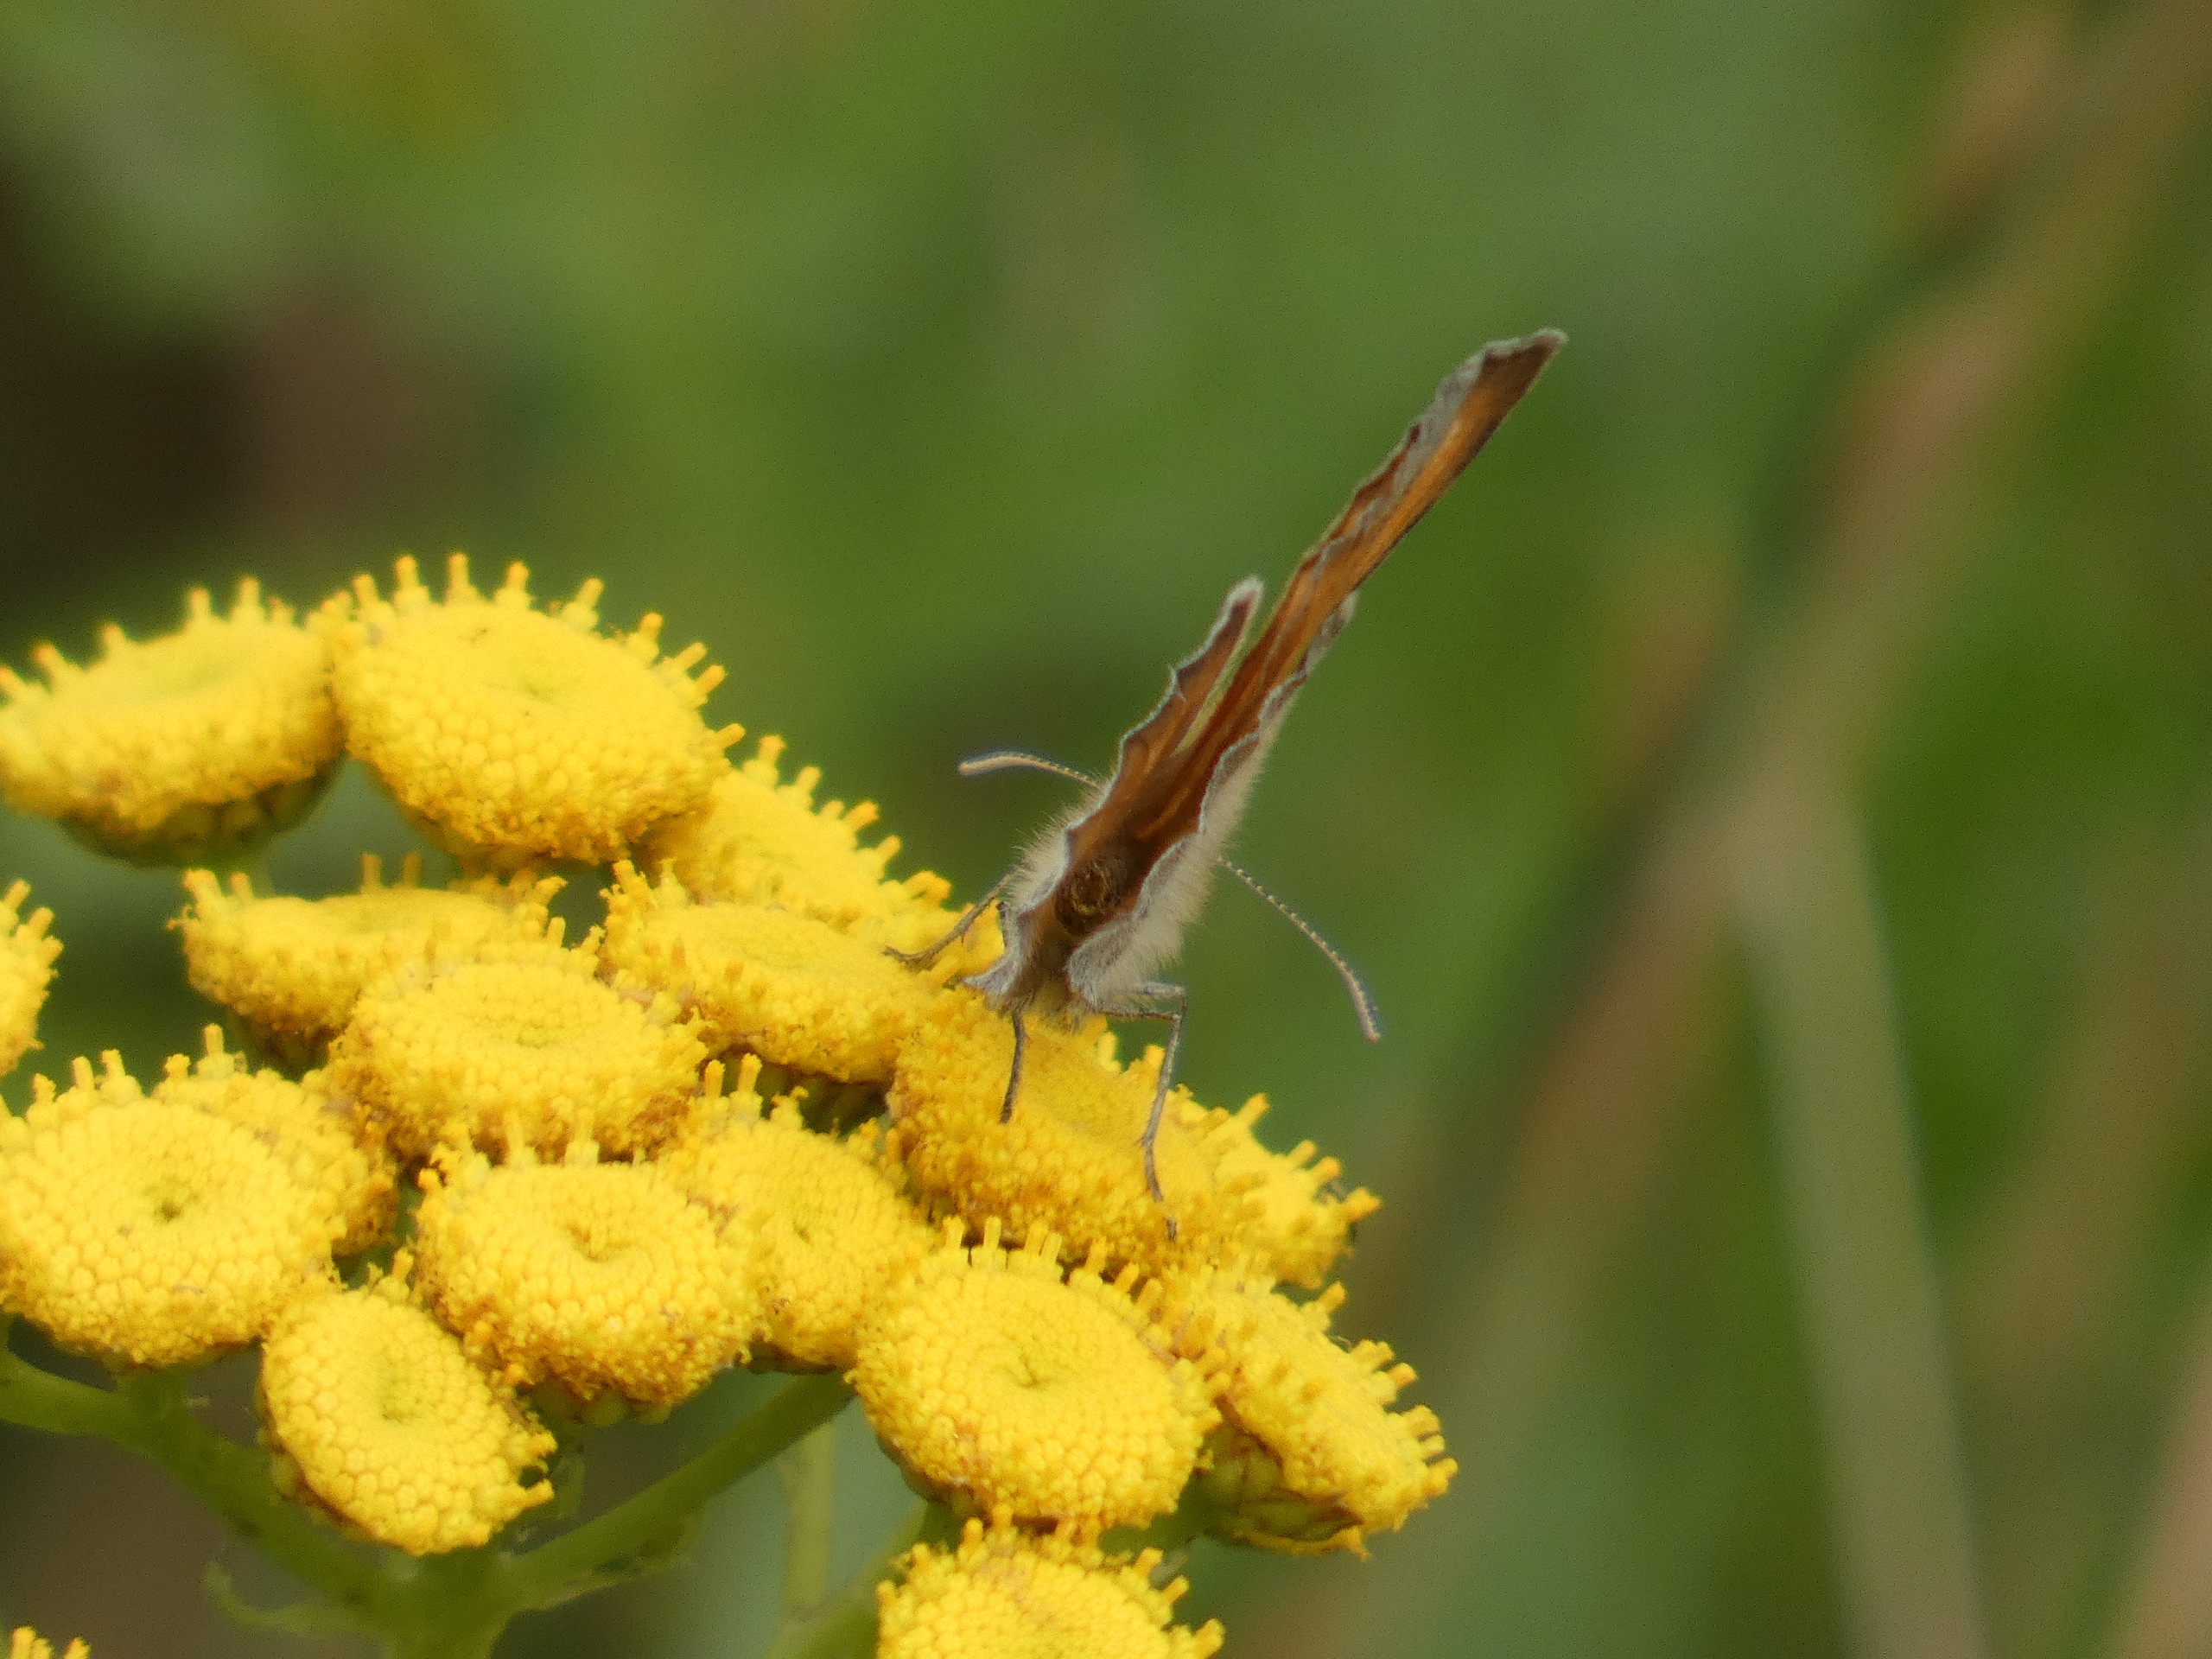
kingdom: Animalia
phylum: Arthropoda
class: Insecta
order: Lepidoptera
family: Nymphalidae
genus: Coenonympha
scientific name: Coenonympha pamphilus
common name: Okkergul randøje
